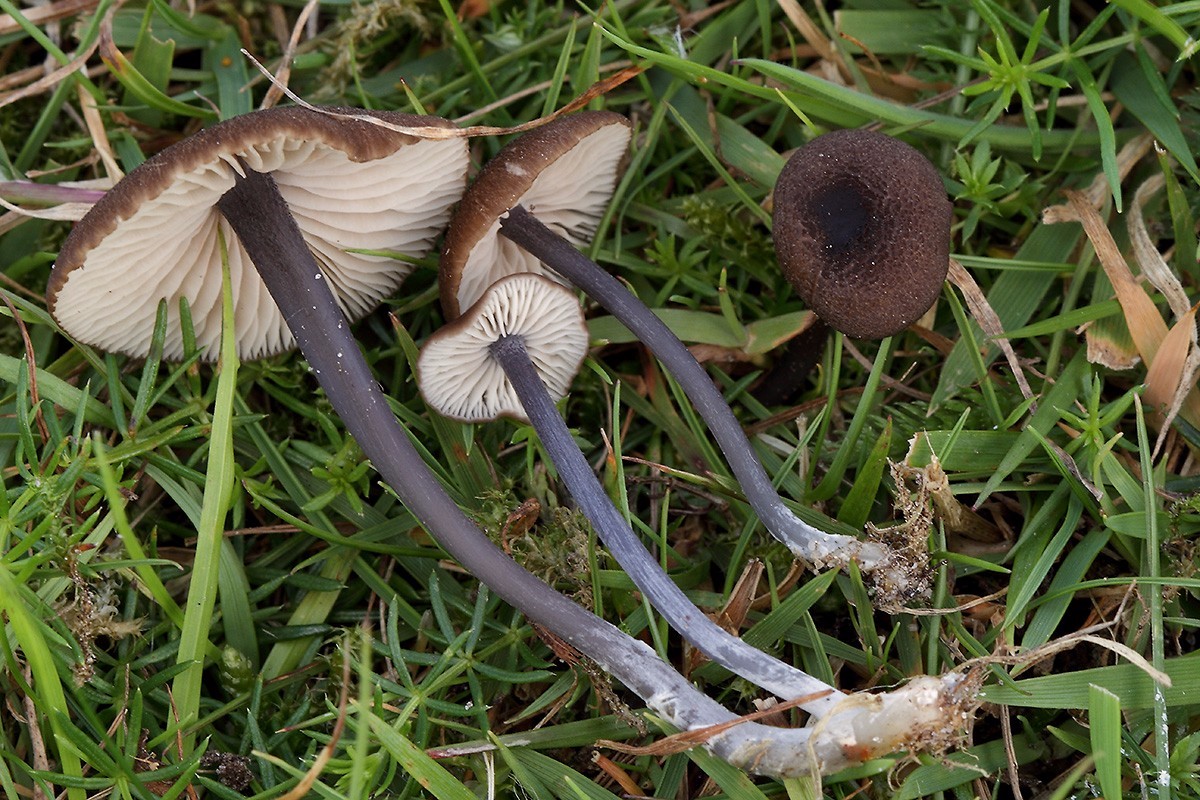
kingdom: Fungi
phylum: Basidiomycota
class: Agaricomycetes
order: Agaricales
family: Entolomataceae
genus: Entoloma
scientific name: Entoloma asprellum
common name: ru rødblad
